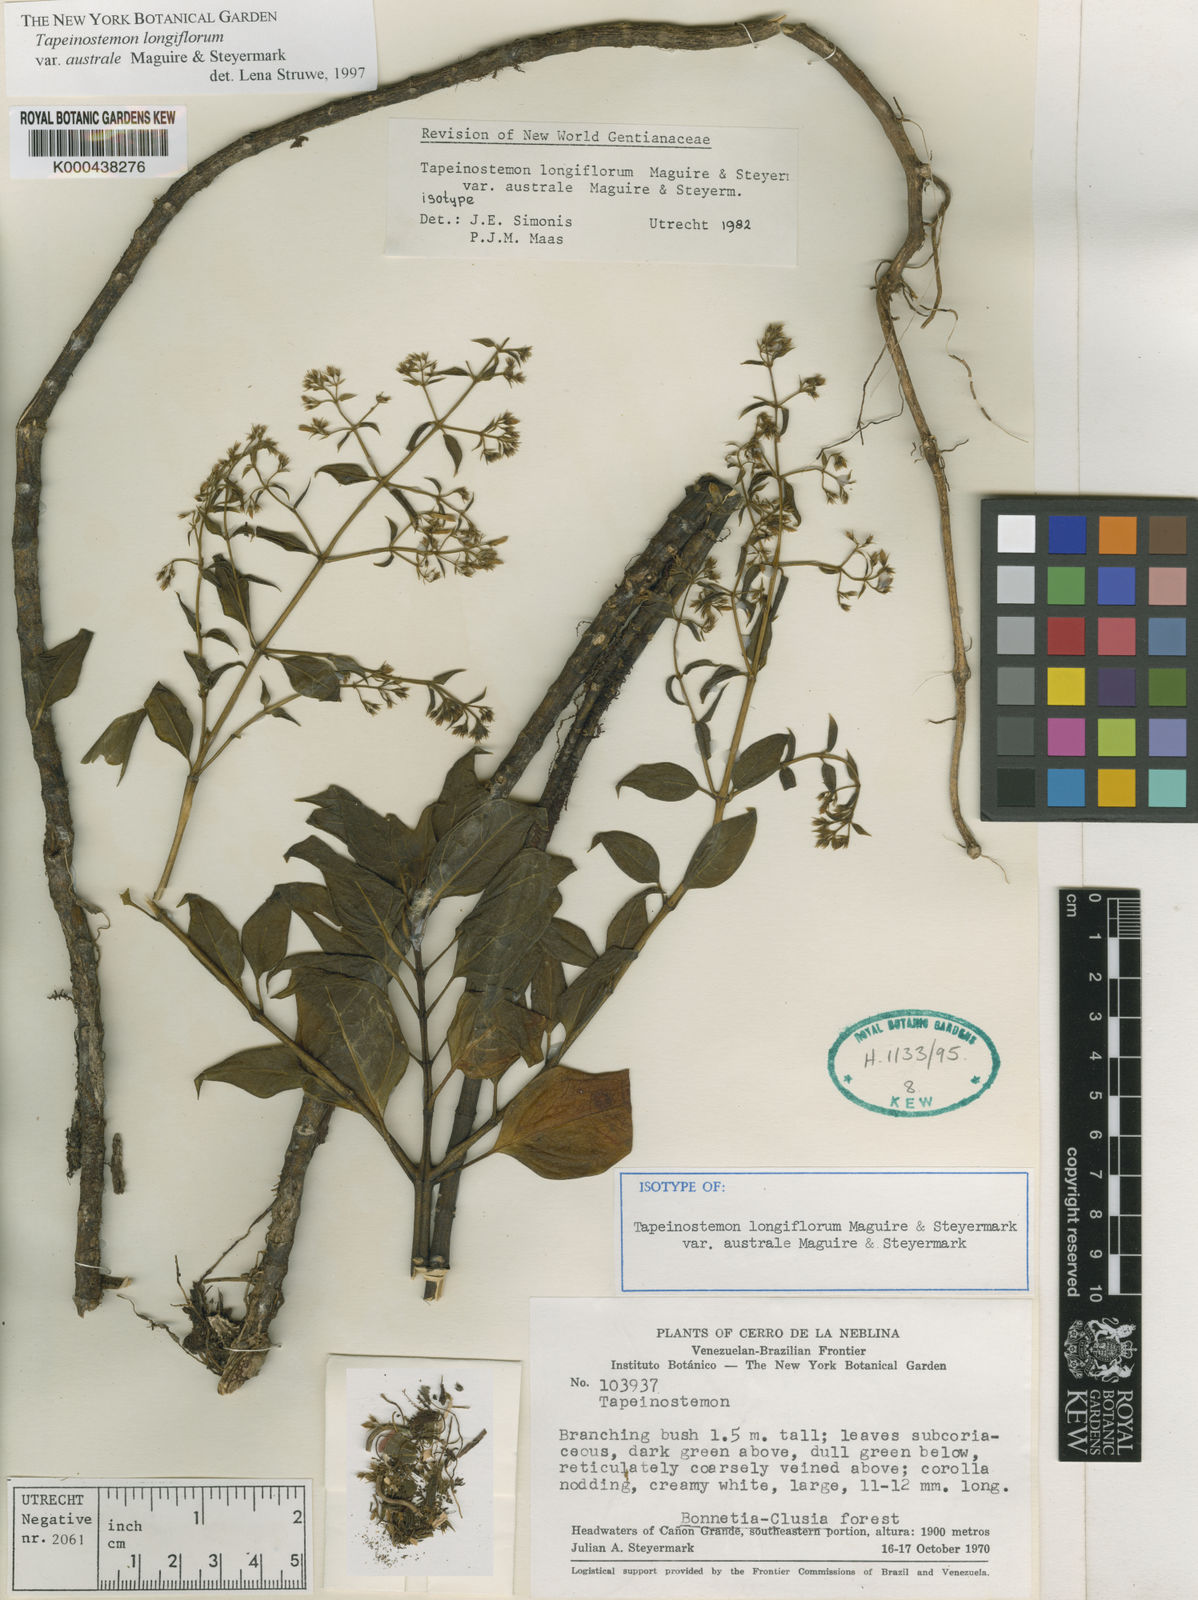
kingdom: Plantae
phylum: Tracheophyta
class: Magnoliopsida
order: Gentianales
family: Gentianaceae
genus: Tapeinostemon
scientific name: Tapeinostemon longiflorus
